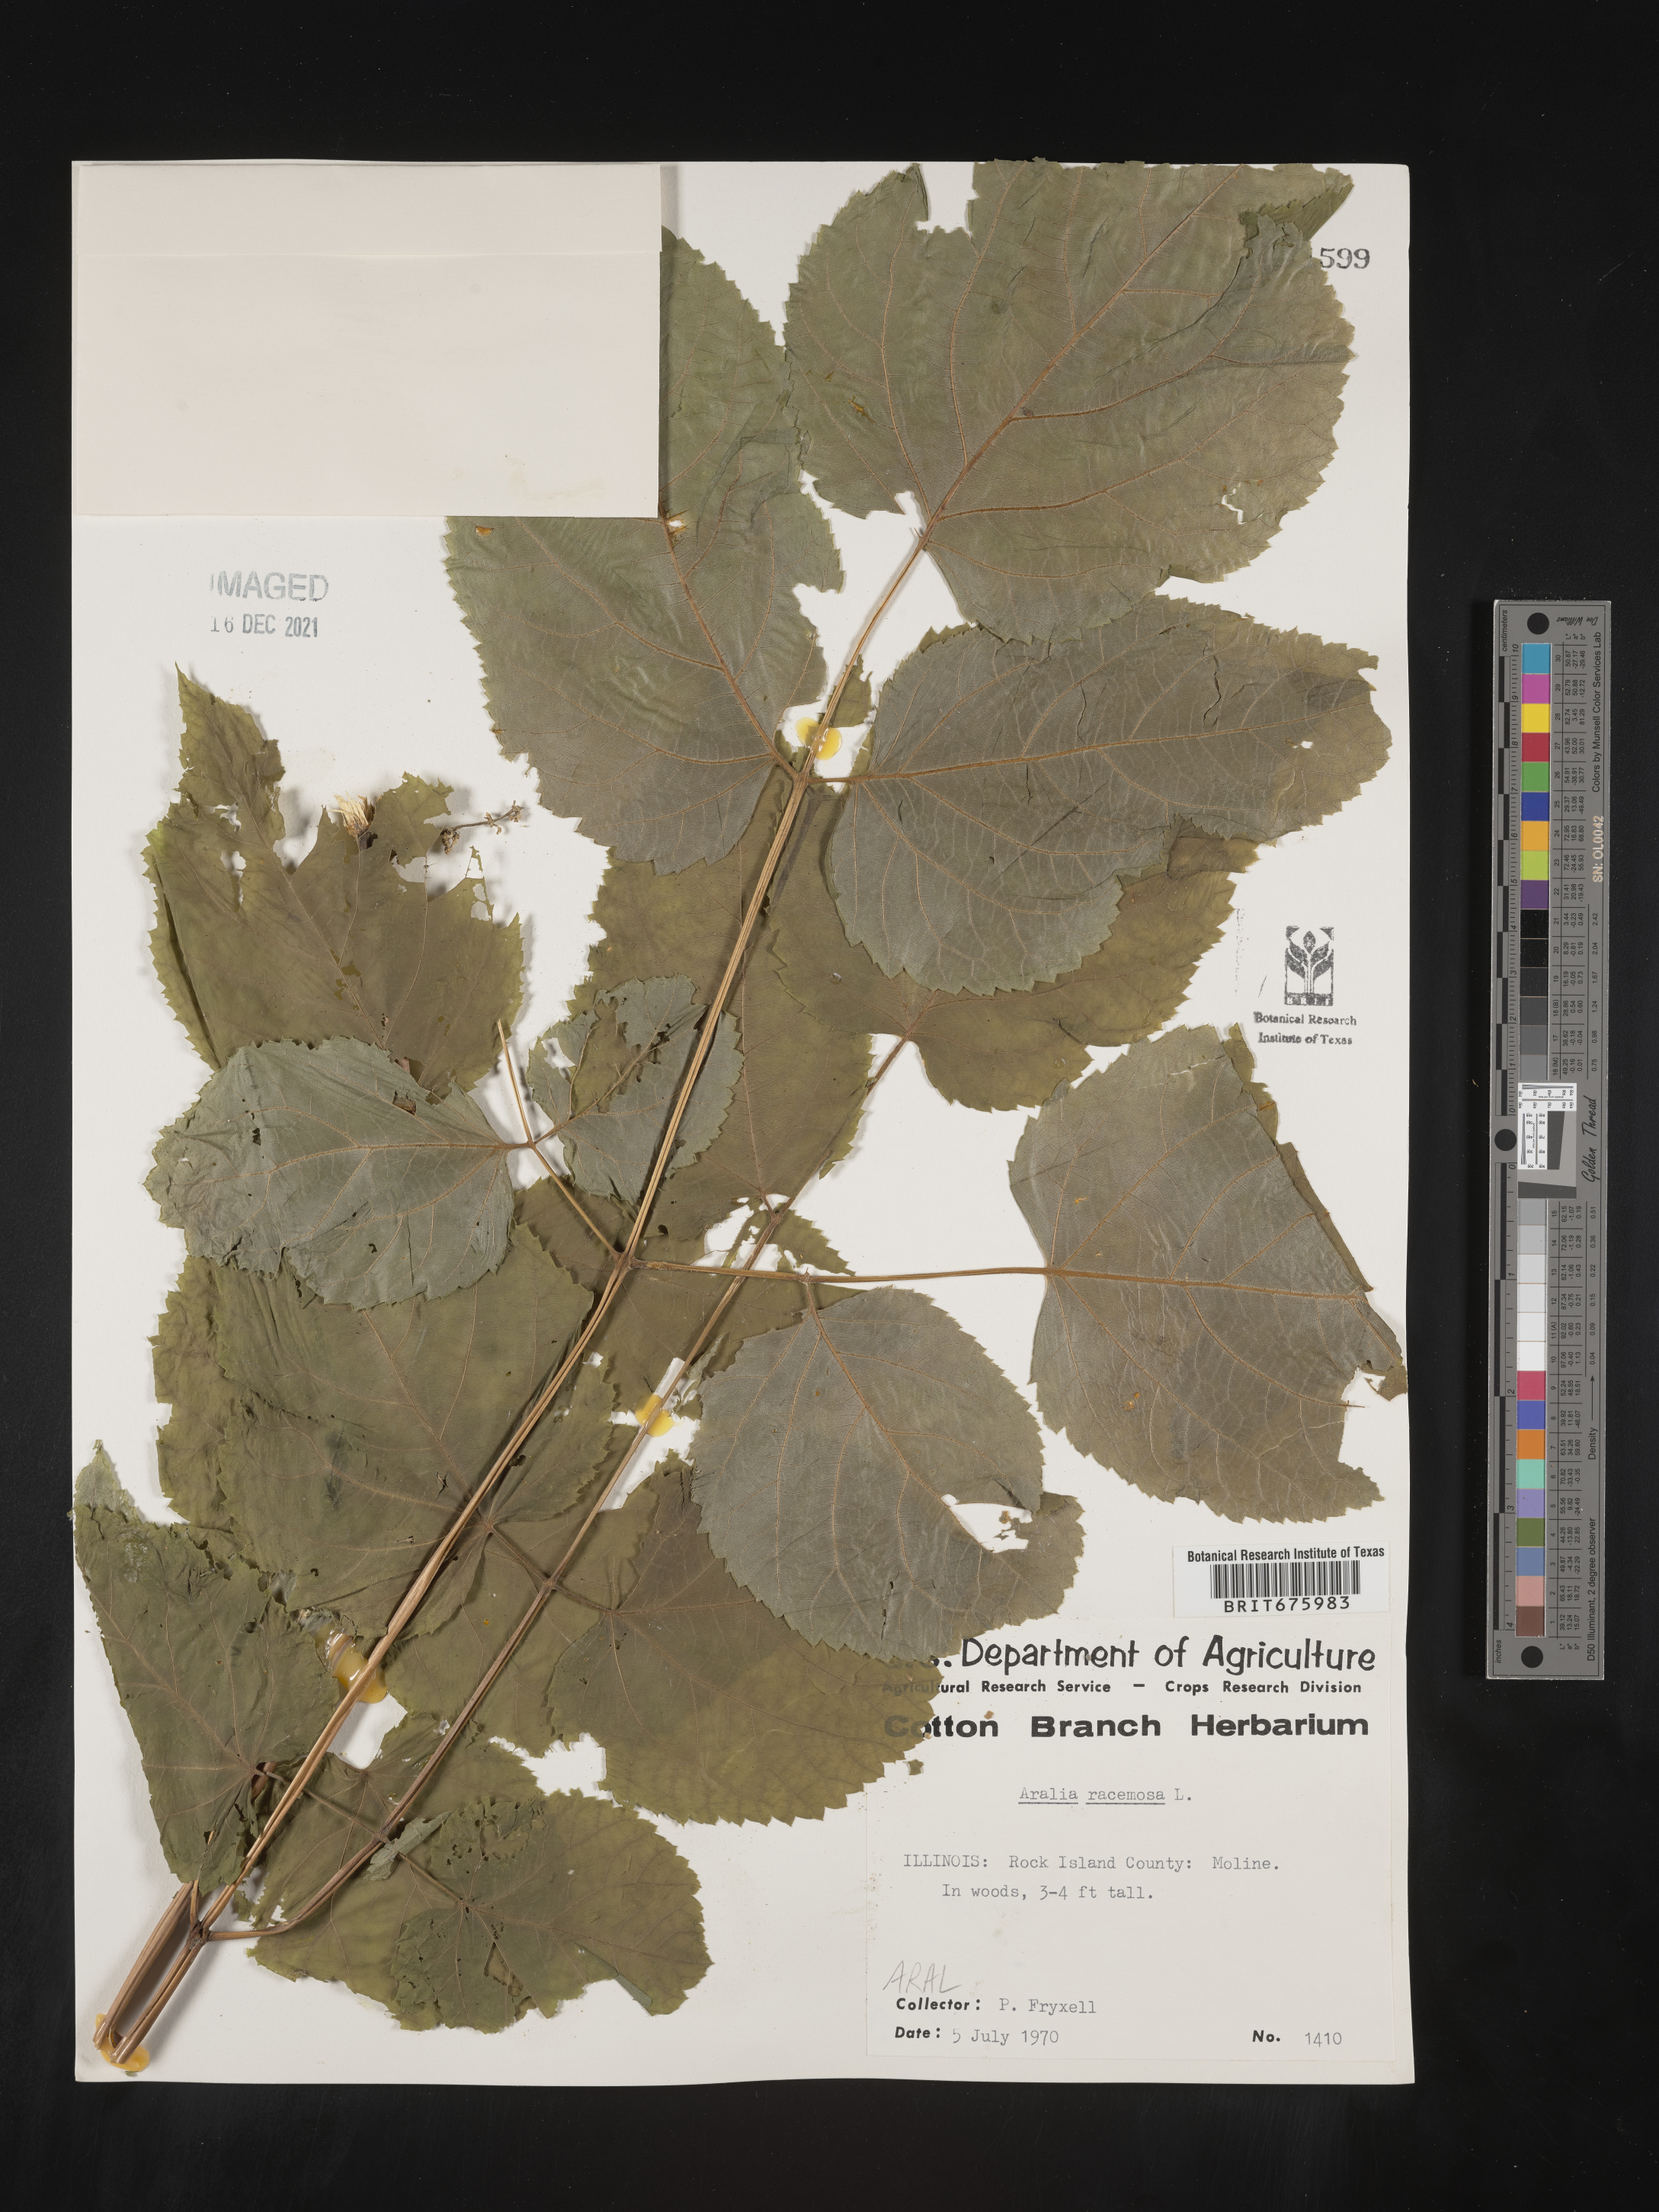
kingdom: Plantae
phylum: Tracheophyta
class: Magnoliopsida
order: Apiales
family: Araliaceae
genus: Aralia
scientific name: Aralia racemosa
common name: American-spikenard
